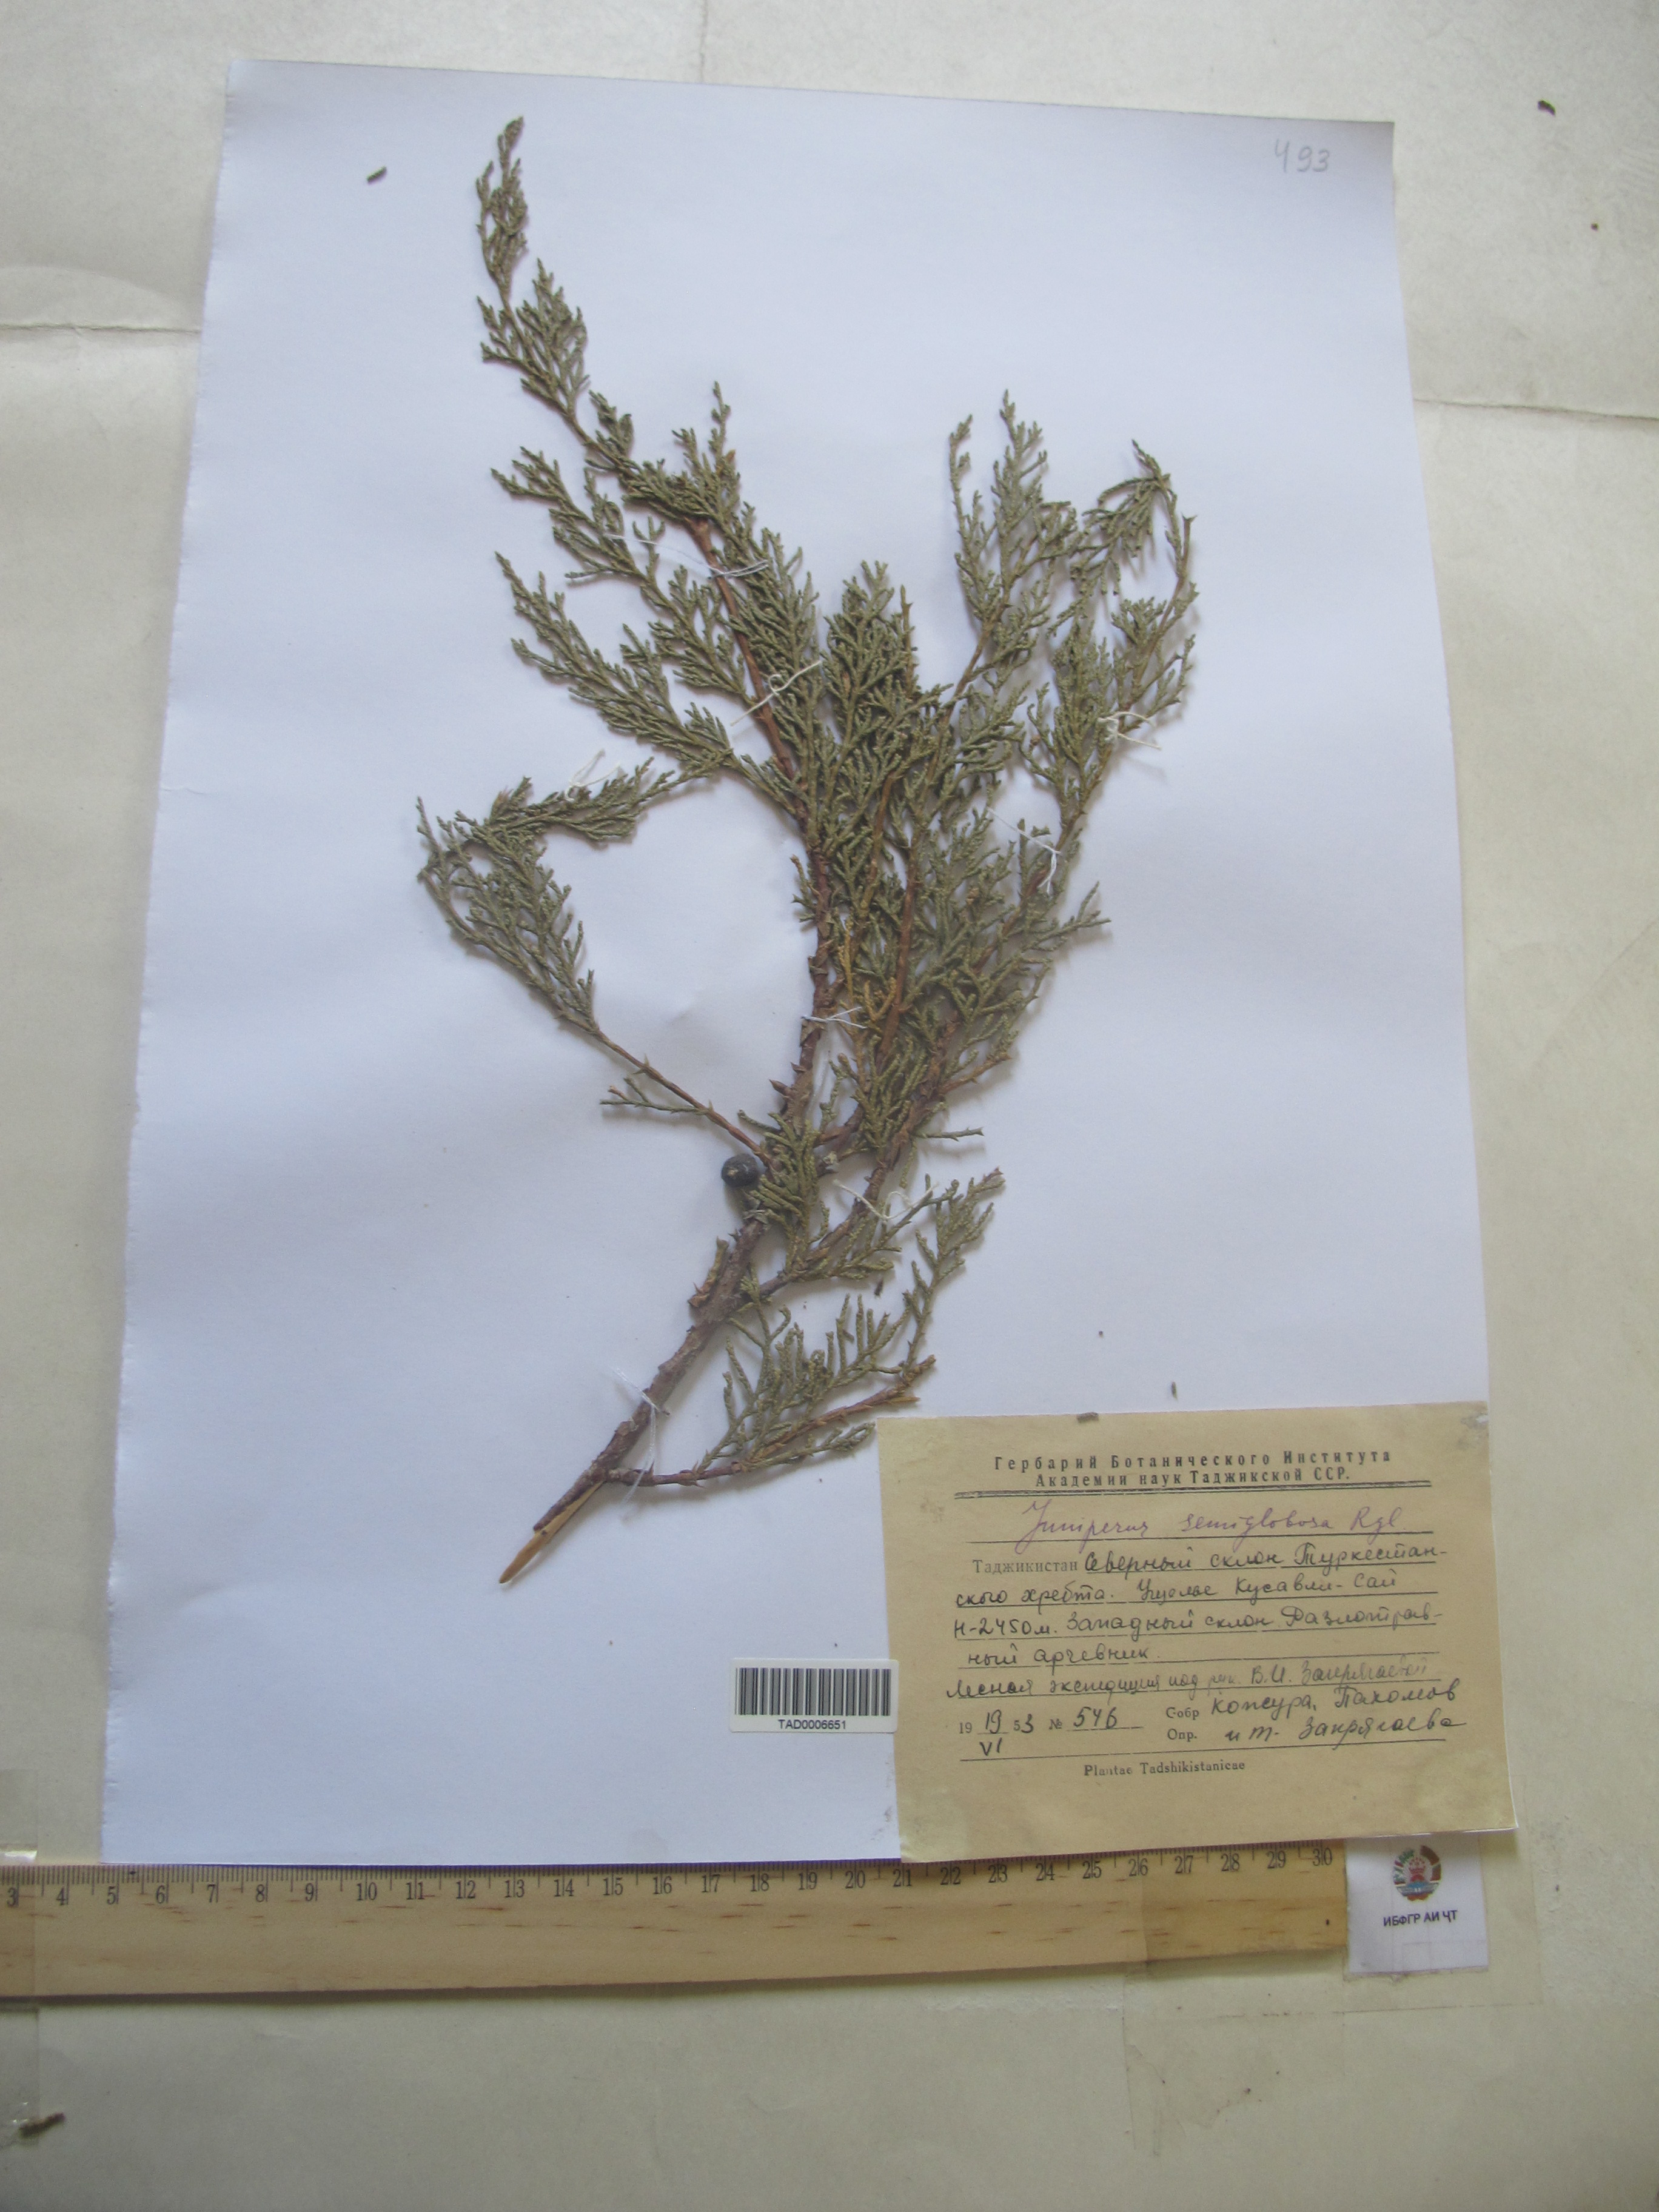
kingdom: Plantae
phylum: Tracheophyta
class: Pinopsida
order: Pinales
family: Cupressaceae
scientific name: Cupressaceae
